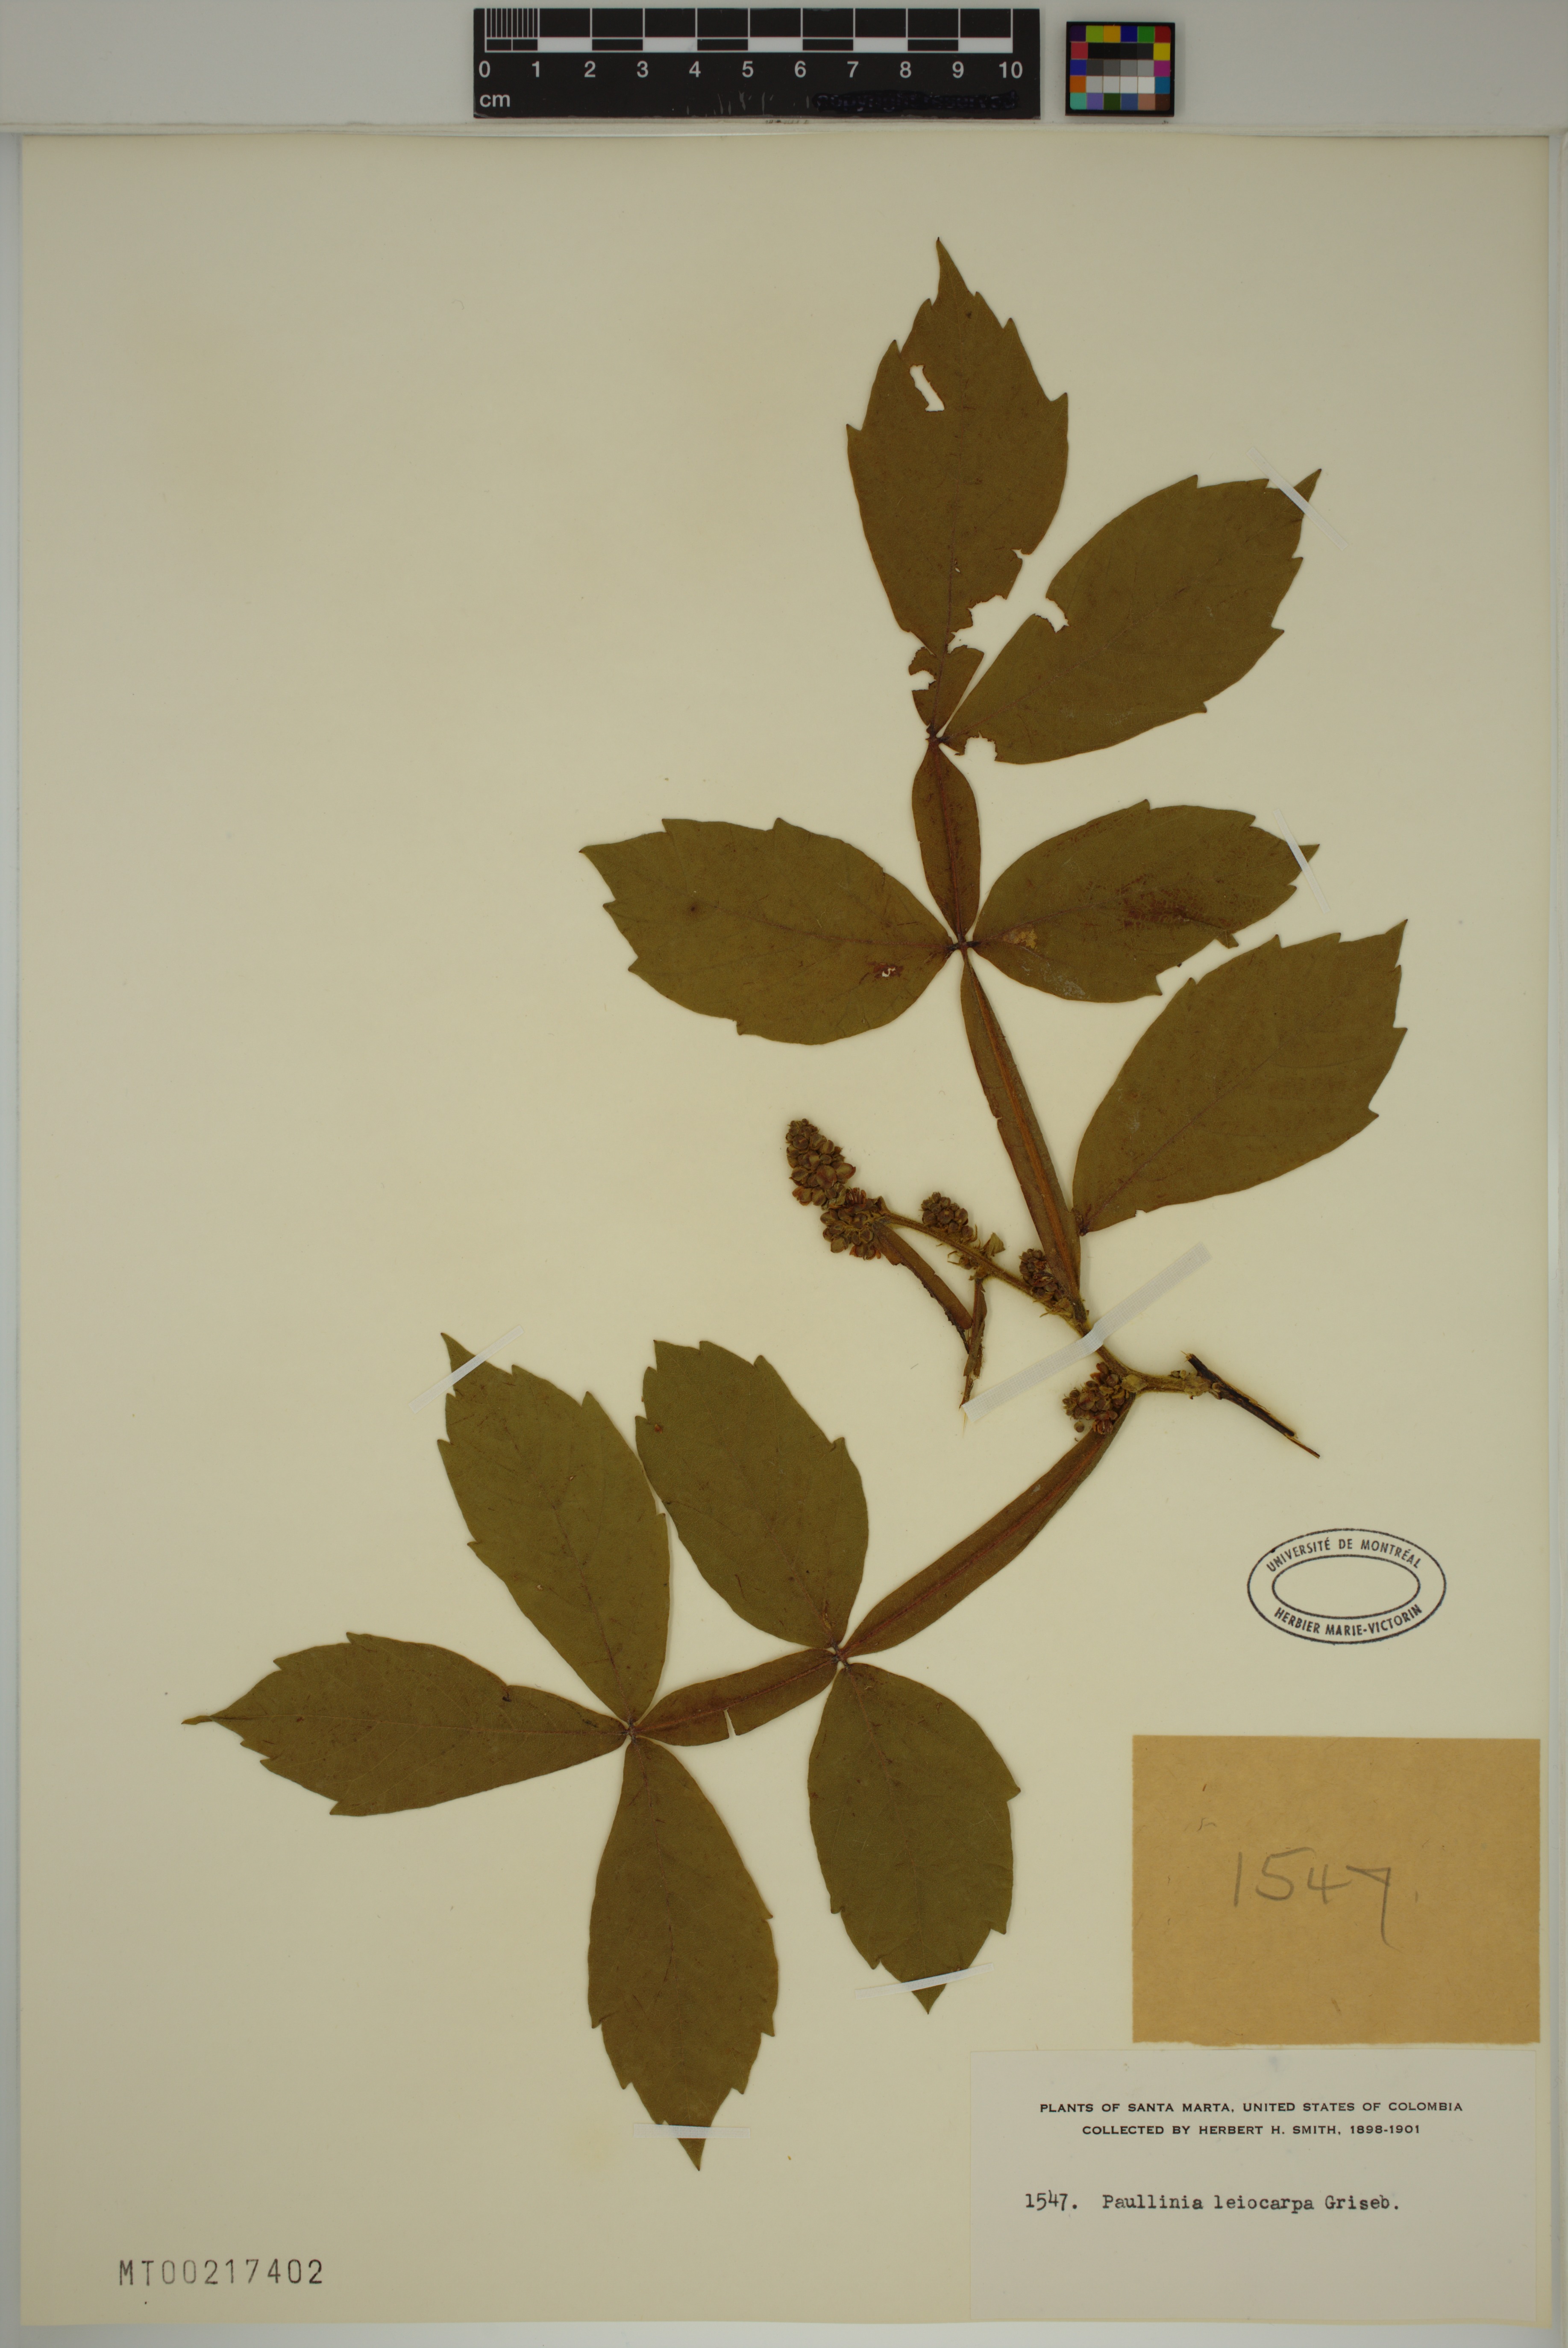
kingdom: Plantae
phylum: Tracheophyta
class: Magnoliopsida
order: Sapindales
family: Sapindaceae
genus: Paullinia
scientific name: Paullinia leiocarpa
